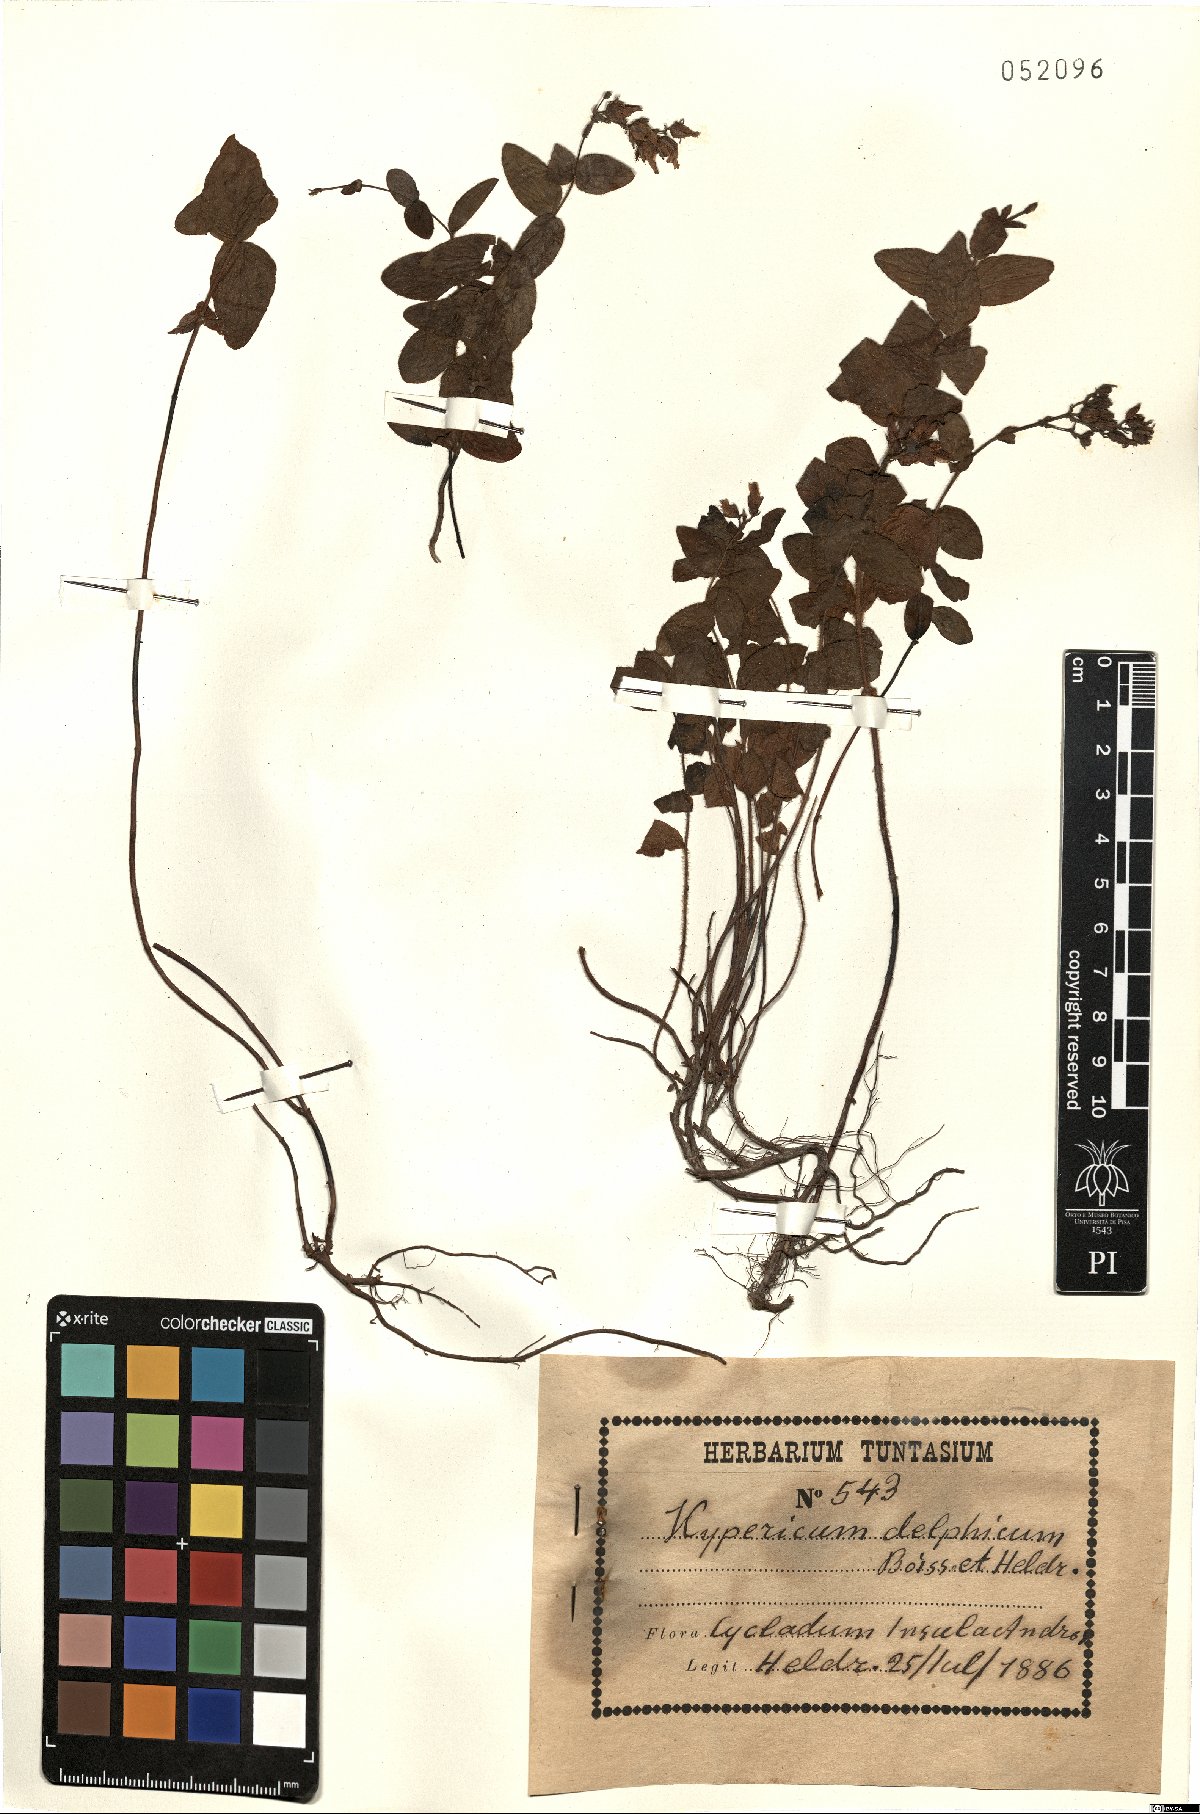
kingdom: Plantae
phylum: Tracheophyta
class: Magnoliopsida
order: Malpighiales
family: Hypericaceae
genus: Hypericum
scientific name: Hypericum delphicum
